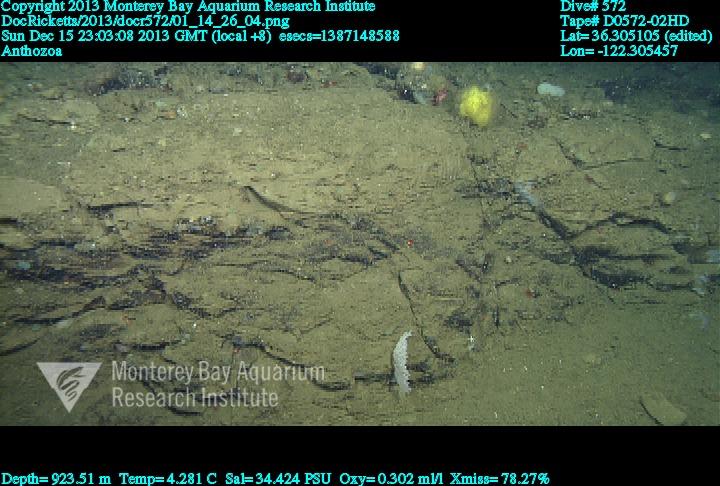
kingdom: Animalia
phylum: Cnidaria
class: Anthozoa
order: Scleralcyonacea
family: Primnoidae
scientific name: Primnoidae
